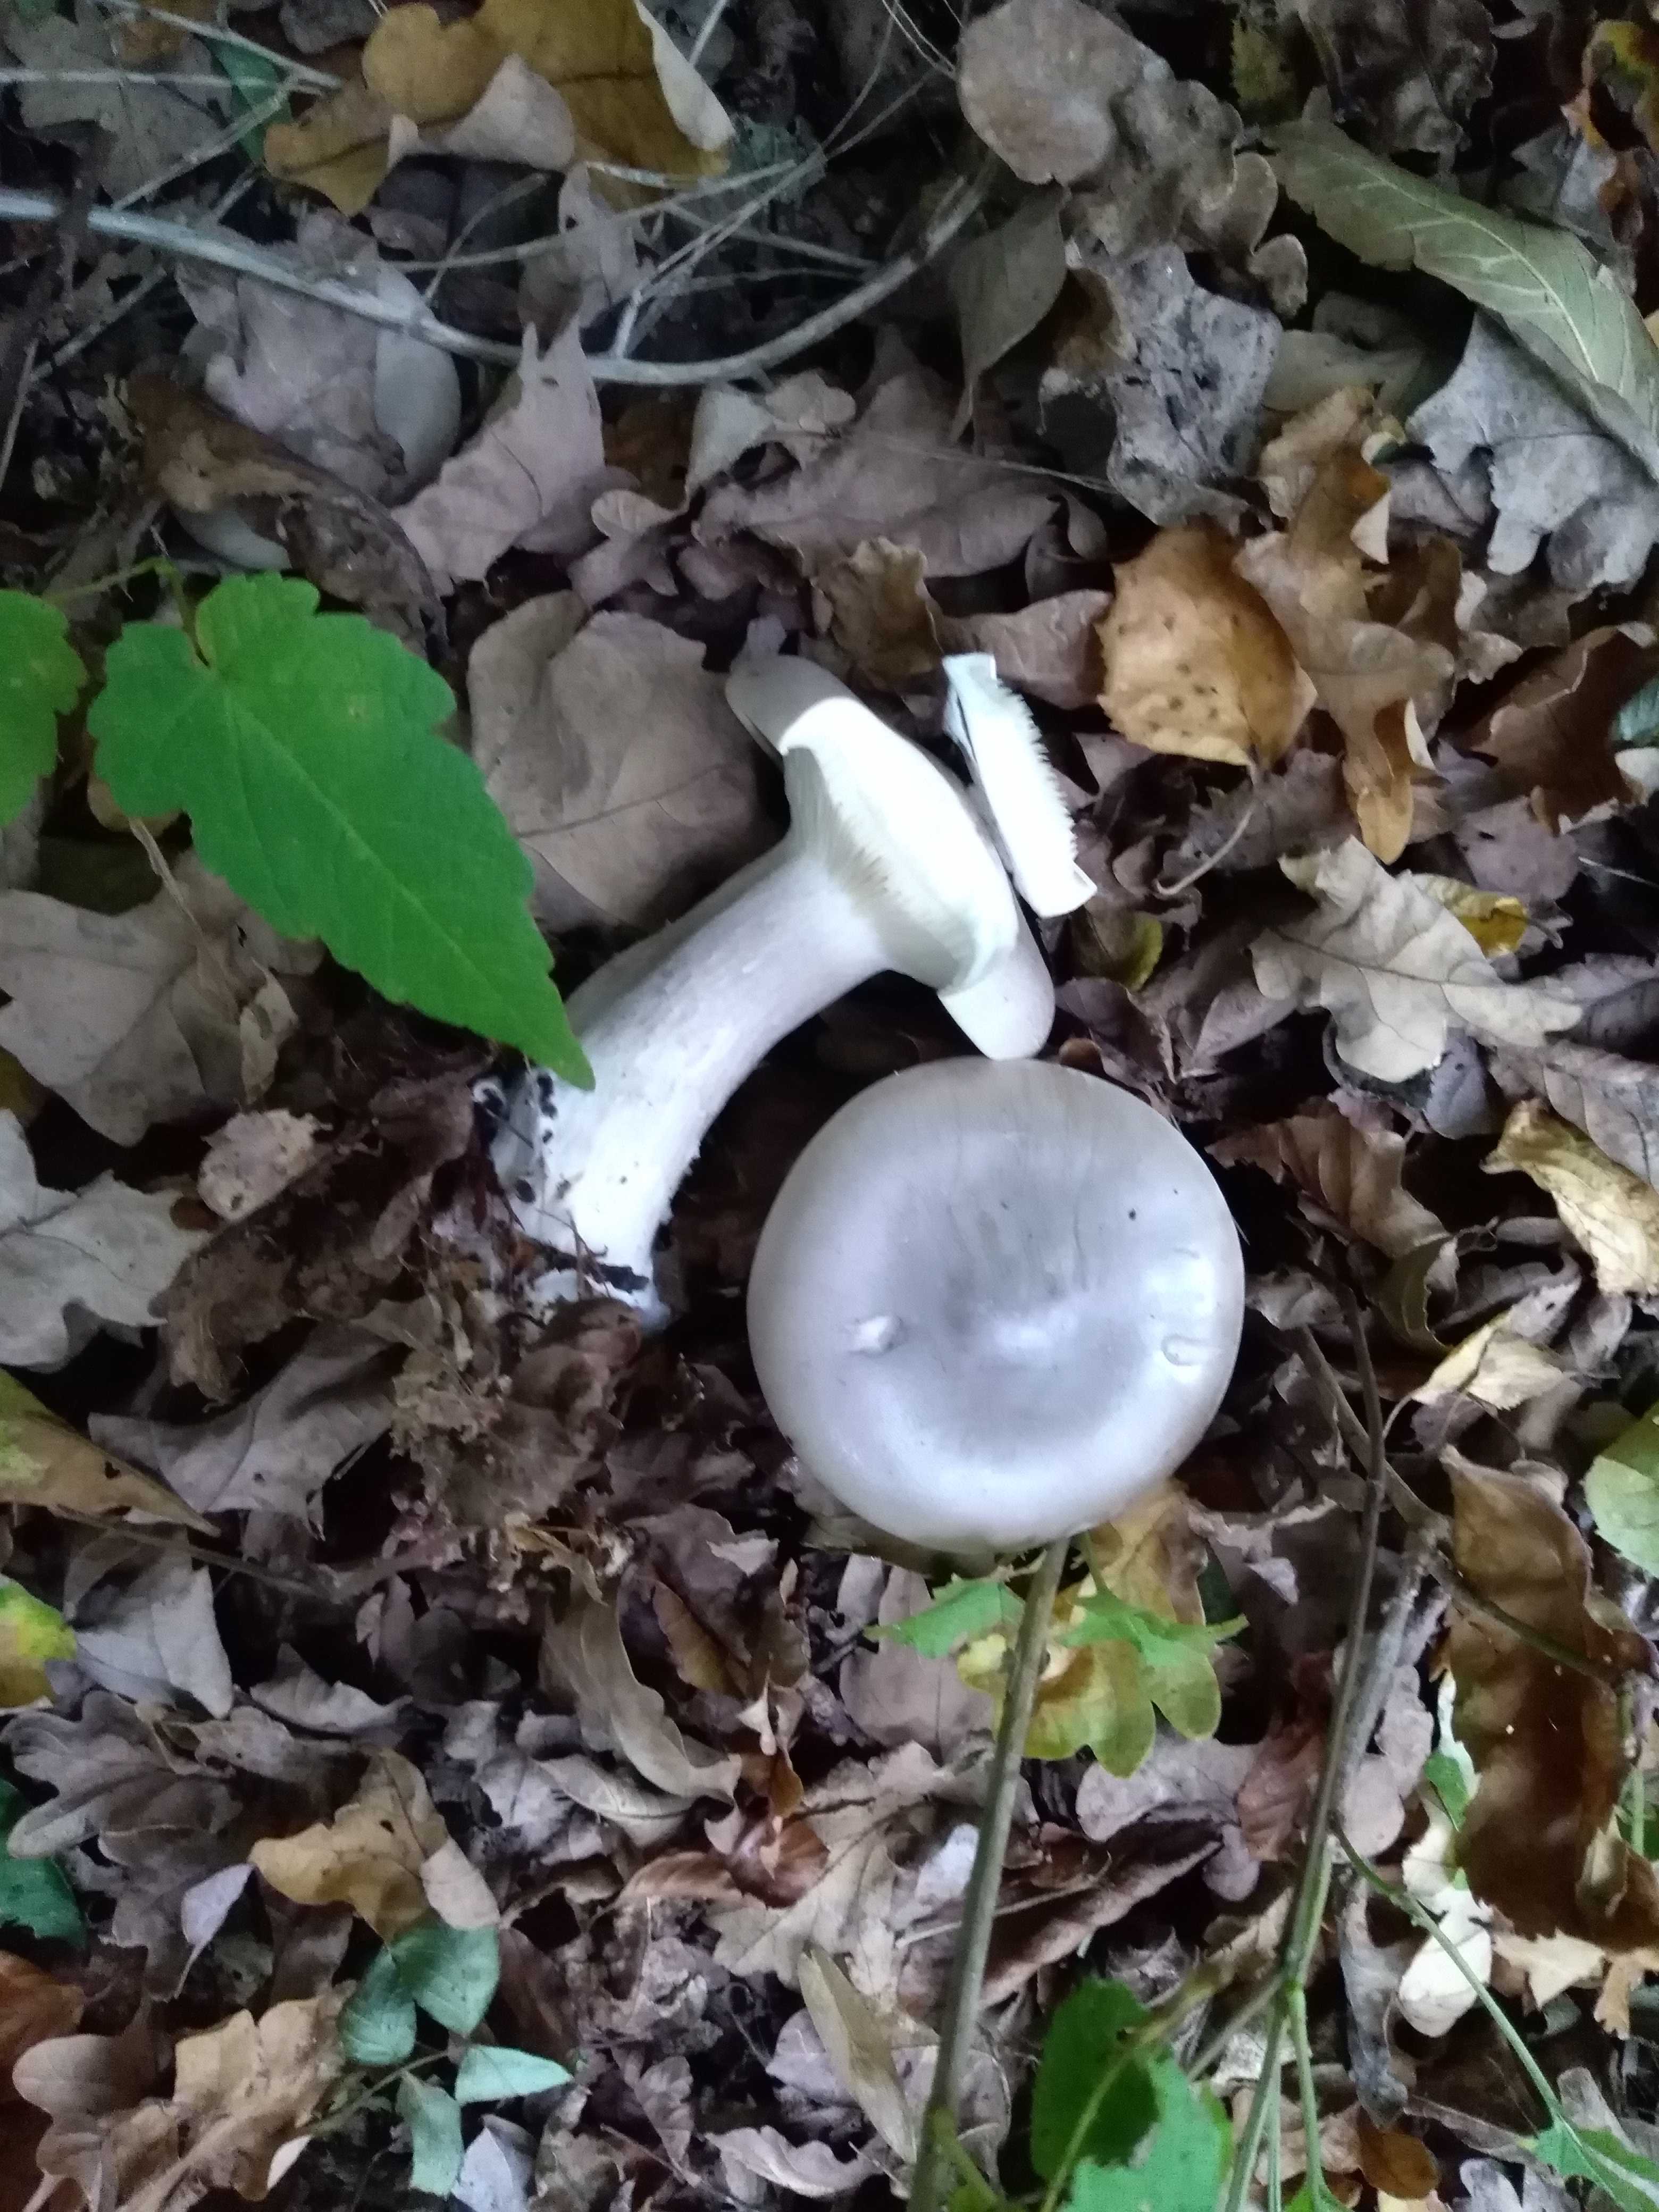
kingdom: Fungi
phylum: Basidiomycota
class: Agaricomycetes
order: Agaricales
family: Tricholomataceae
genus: Clitocybe
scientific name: Clitocybe nebularis
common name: tåge-tragthat
